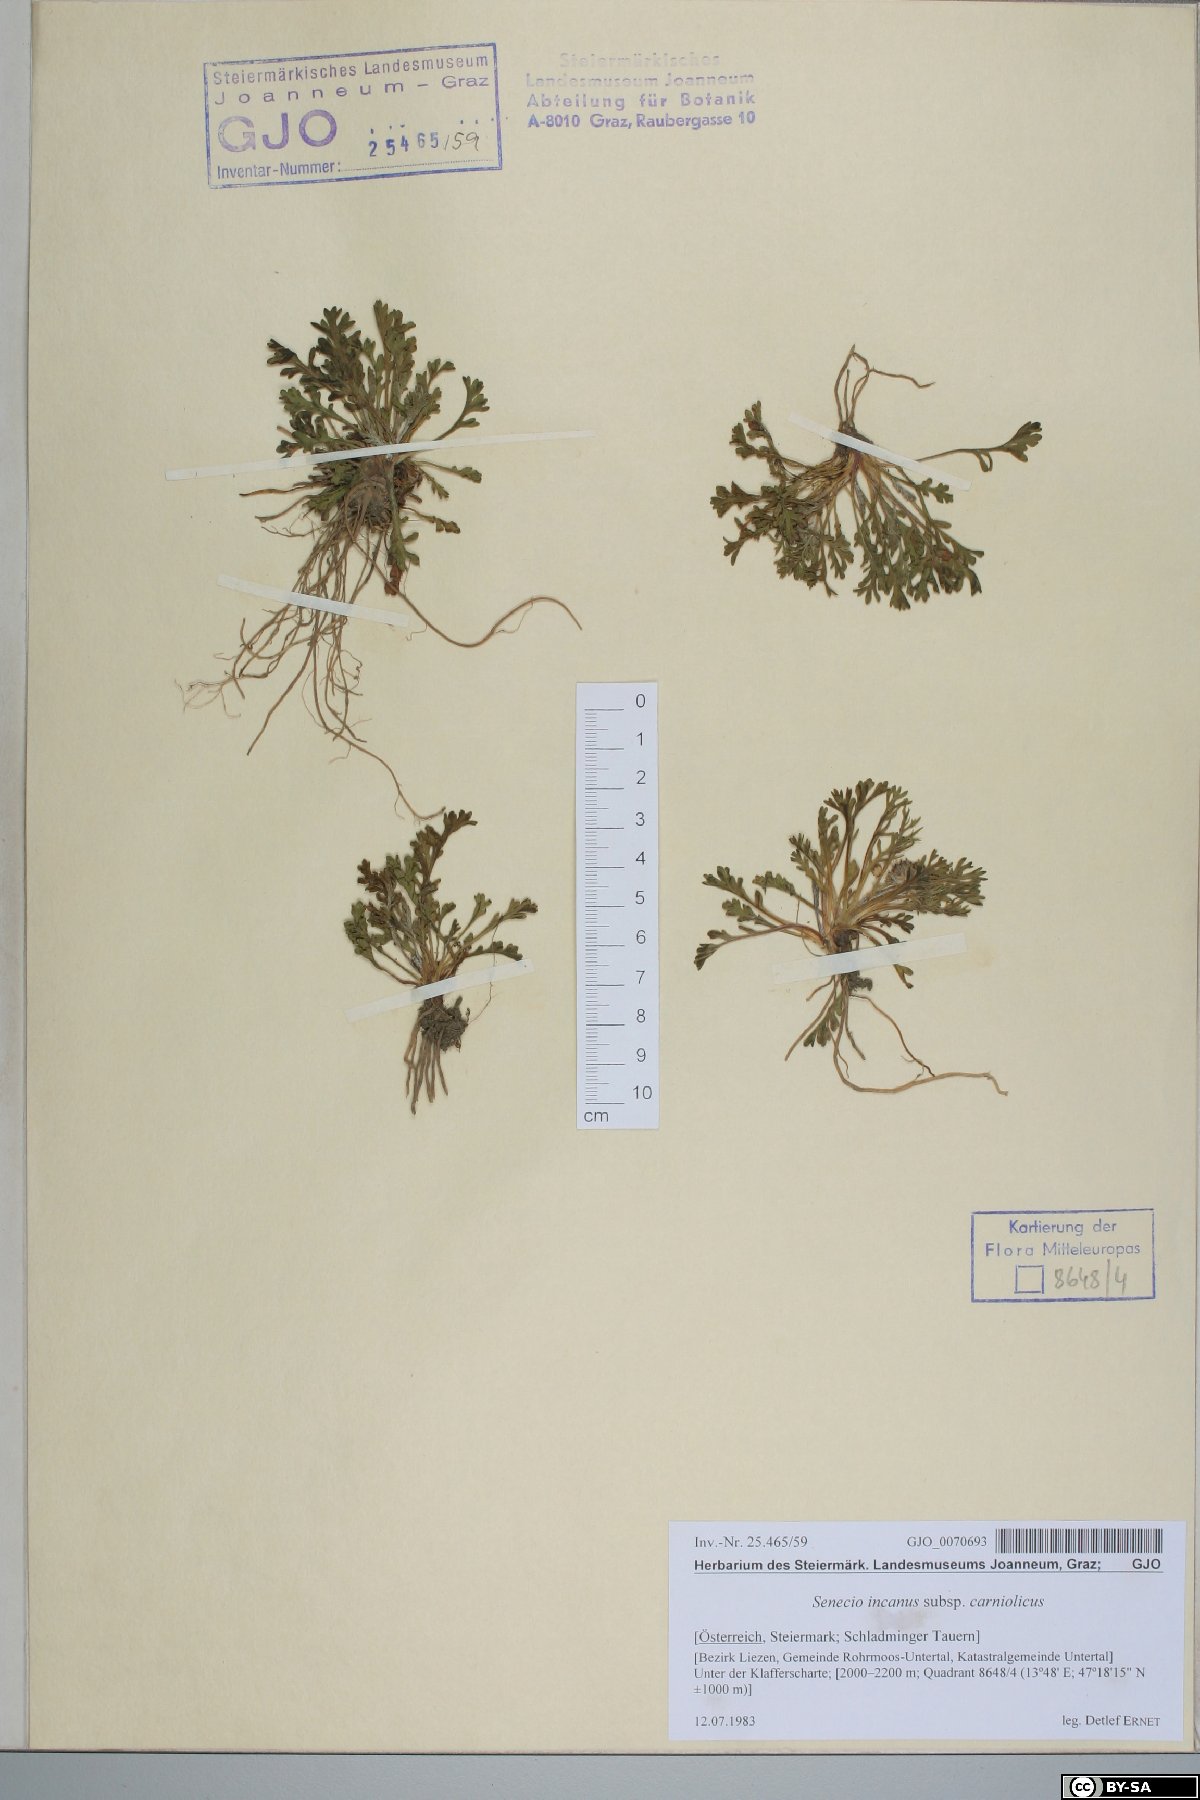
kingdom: Plantae
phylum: Tracheophyta
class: Magnoliopsida
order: Asterales
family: Asteraceae
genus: Jacobaea
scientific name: Jacobaea disjuncta
